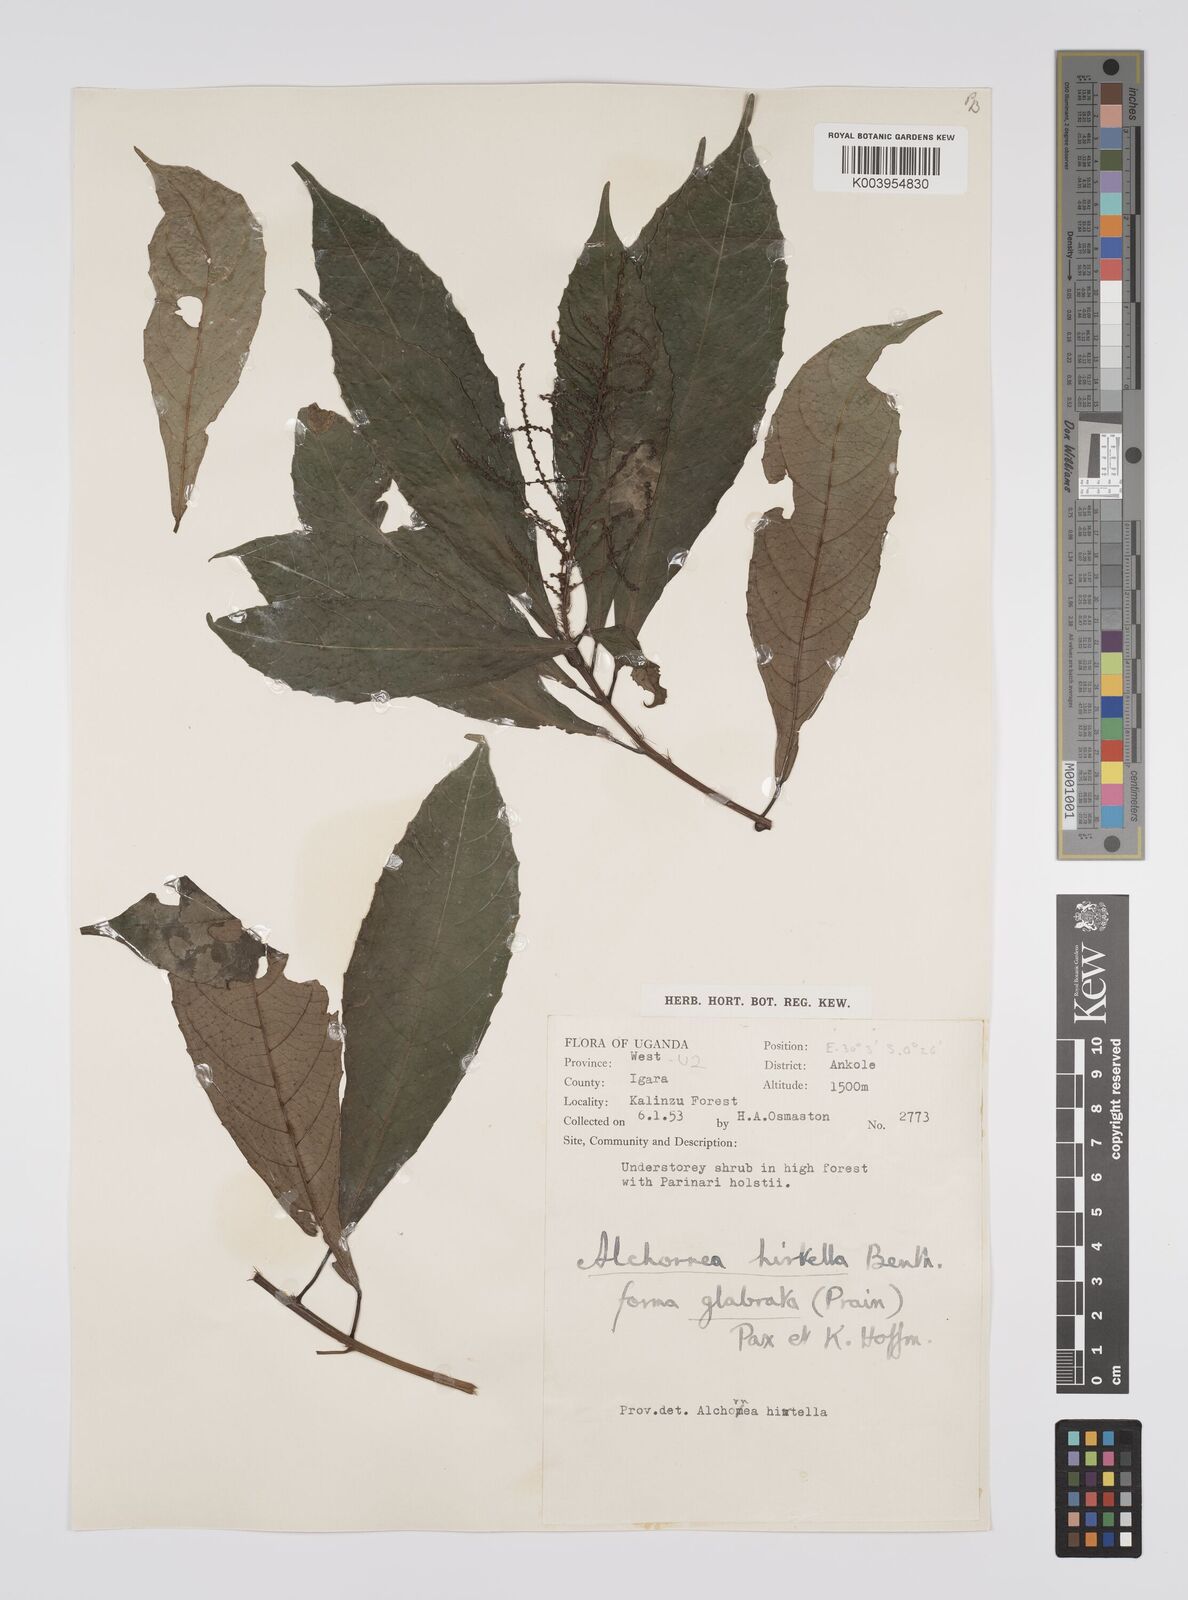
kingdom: Plantae
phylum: Tracheophyta
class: Magnoliopsida
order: Malpighiales
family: Euphorbiaceae
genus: Alchornea
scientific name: Alchornea hirtella
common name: Forest bead-string
